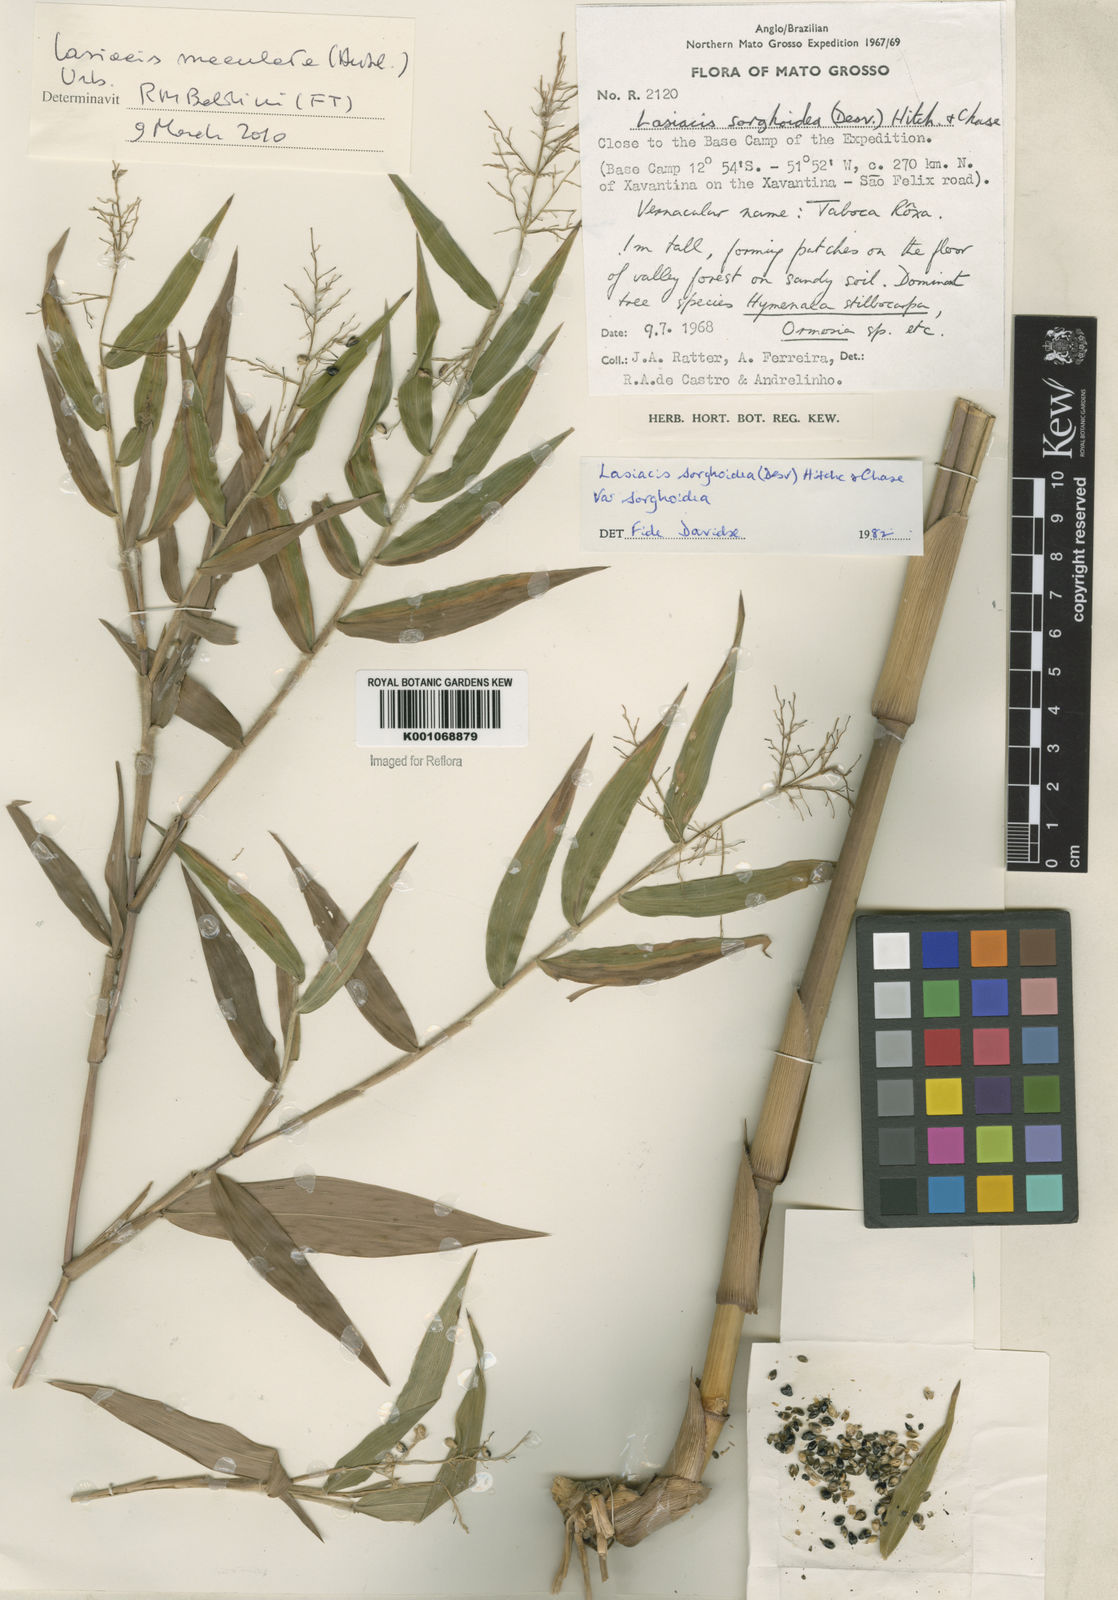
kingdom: Plantae
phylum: Tracheophyta
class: Liliopsida
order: Poales
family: Poaceae
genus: Lasiacis
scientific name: Lasiacis maculata
